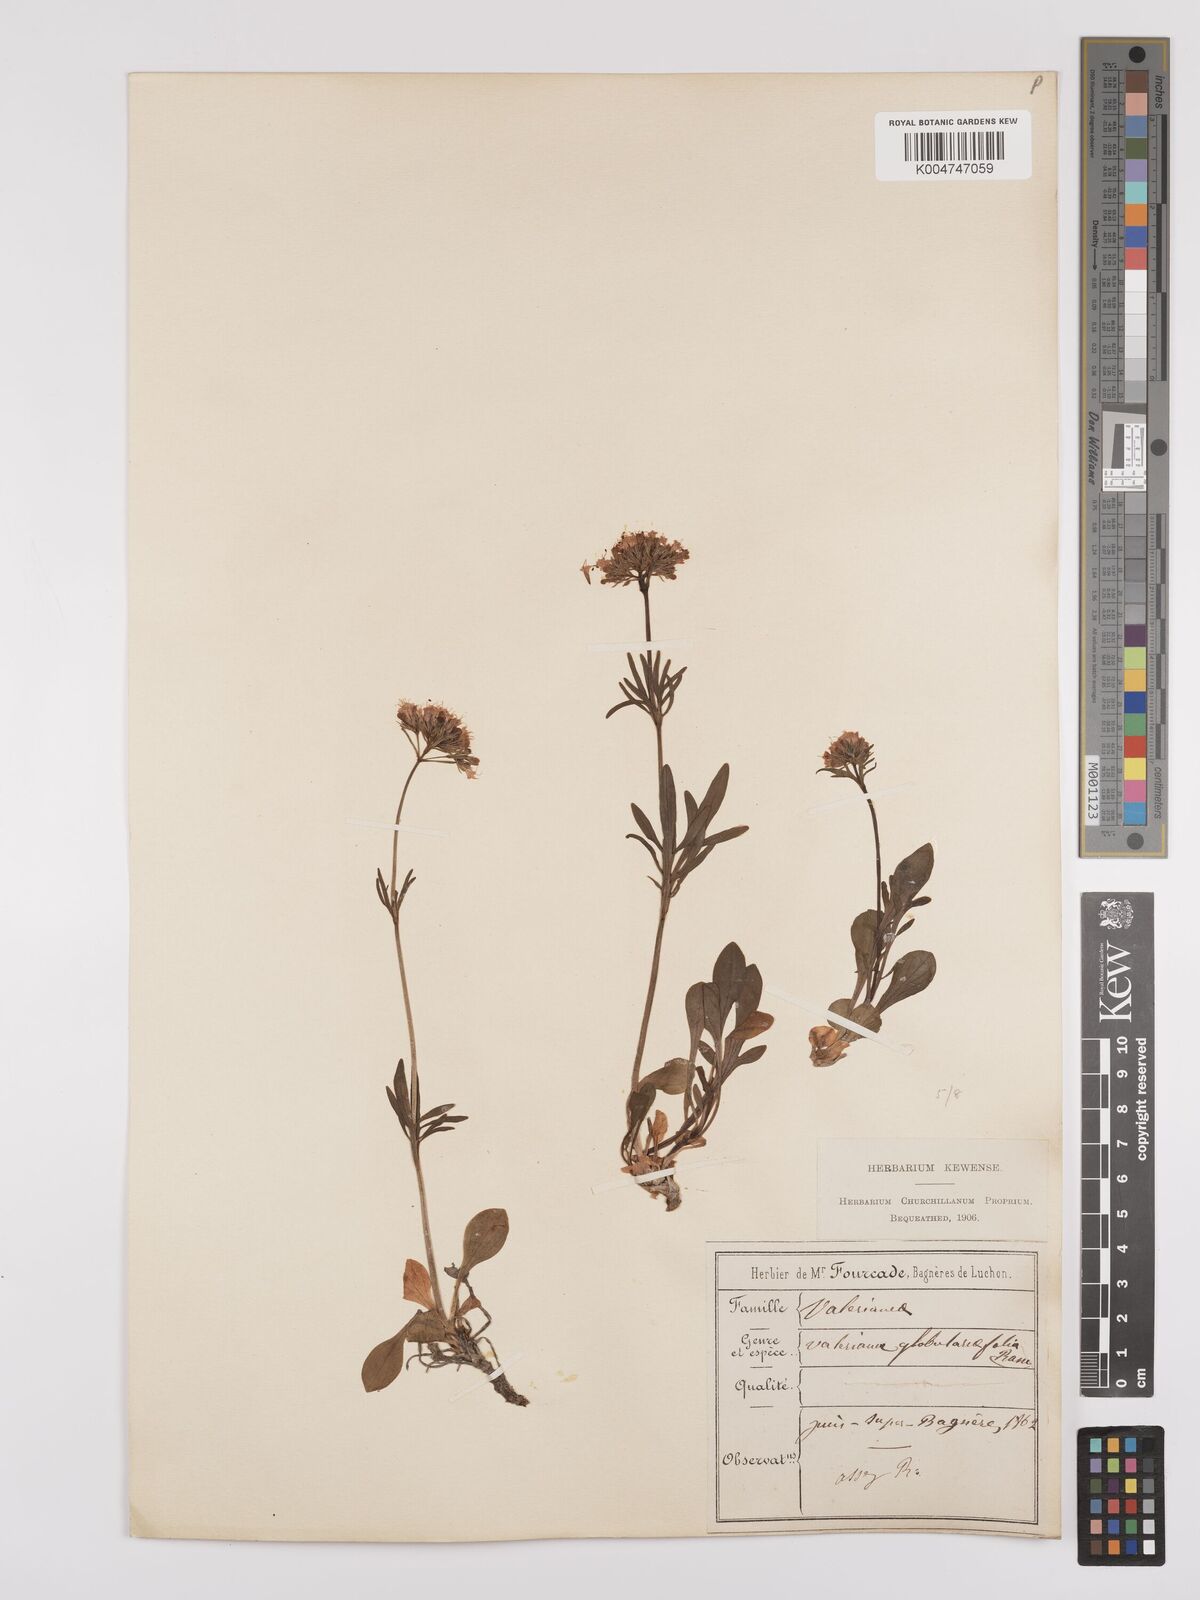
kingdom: Plantae
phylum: Tracheophyta
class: Magnoliopsida
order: Dipsacales
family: Caprifoliaceae
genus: Valeriana
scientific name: Valeriana apula
